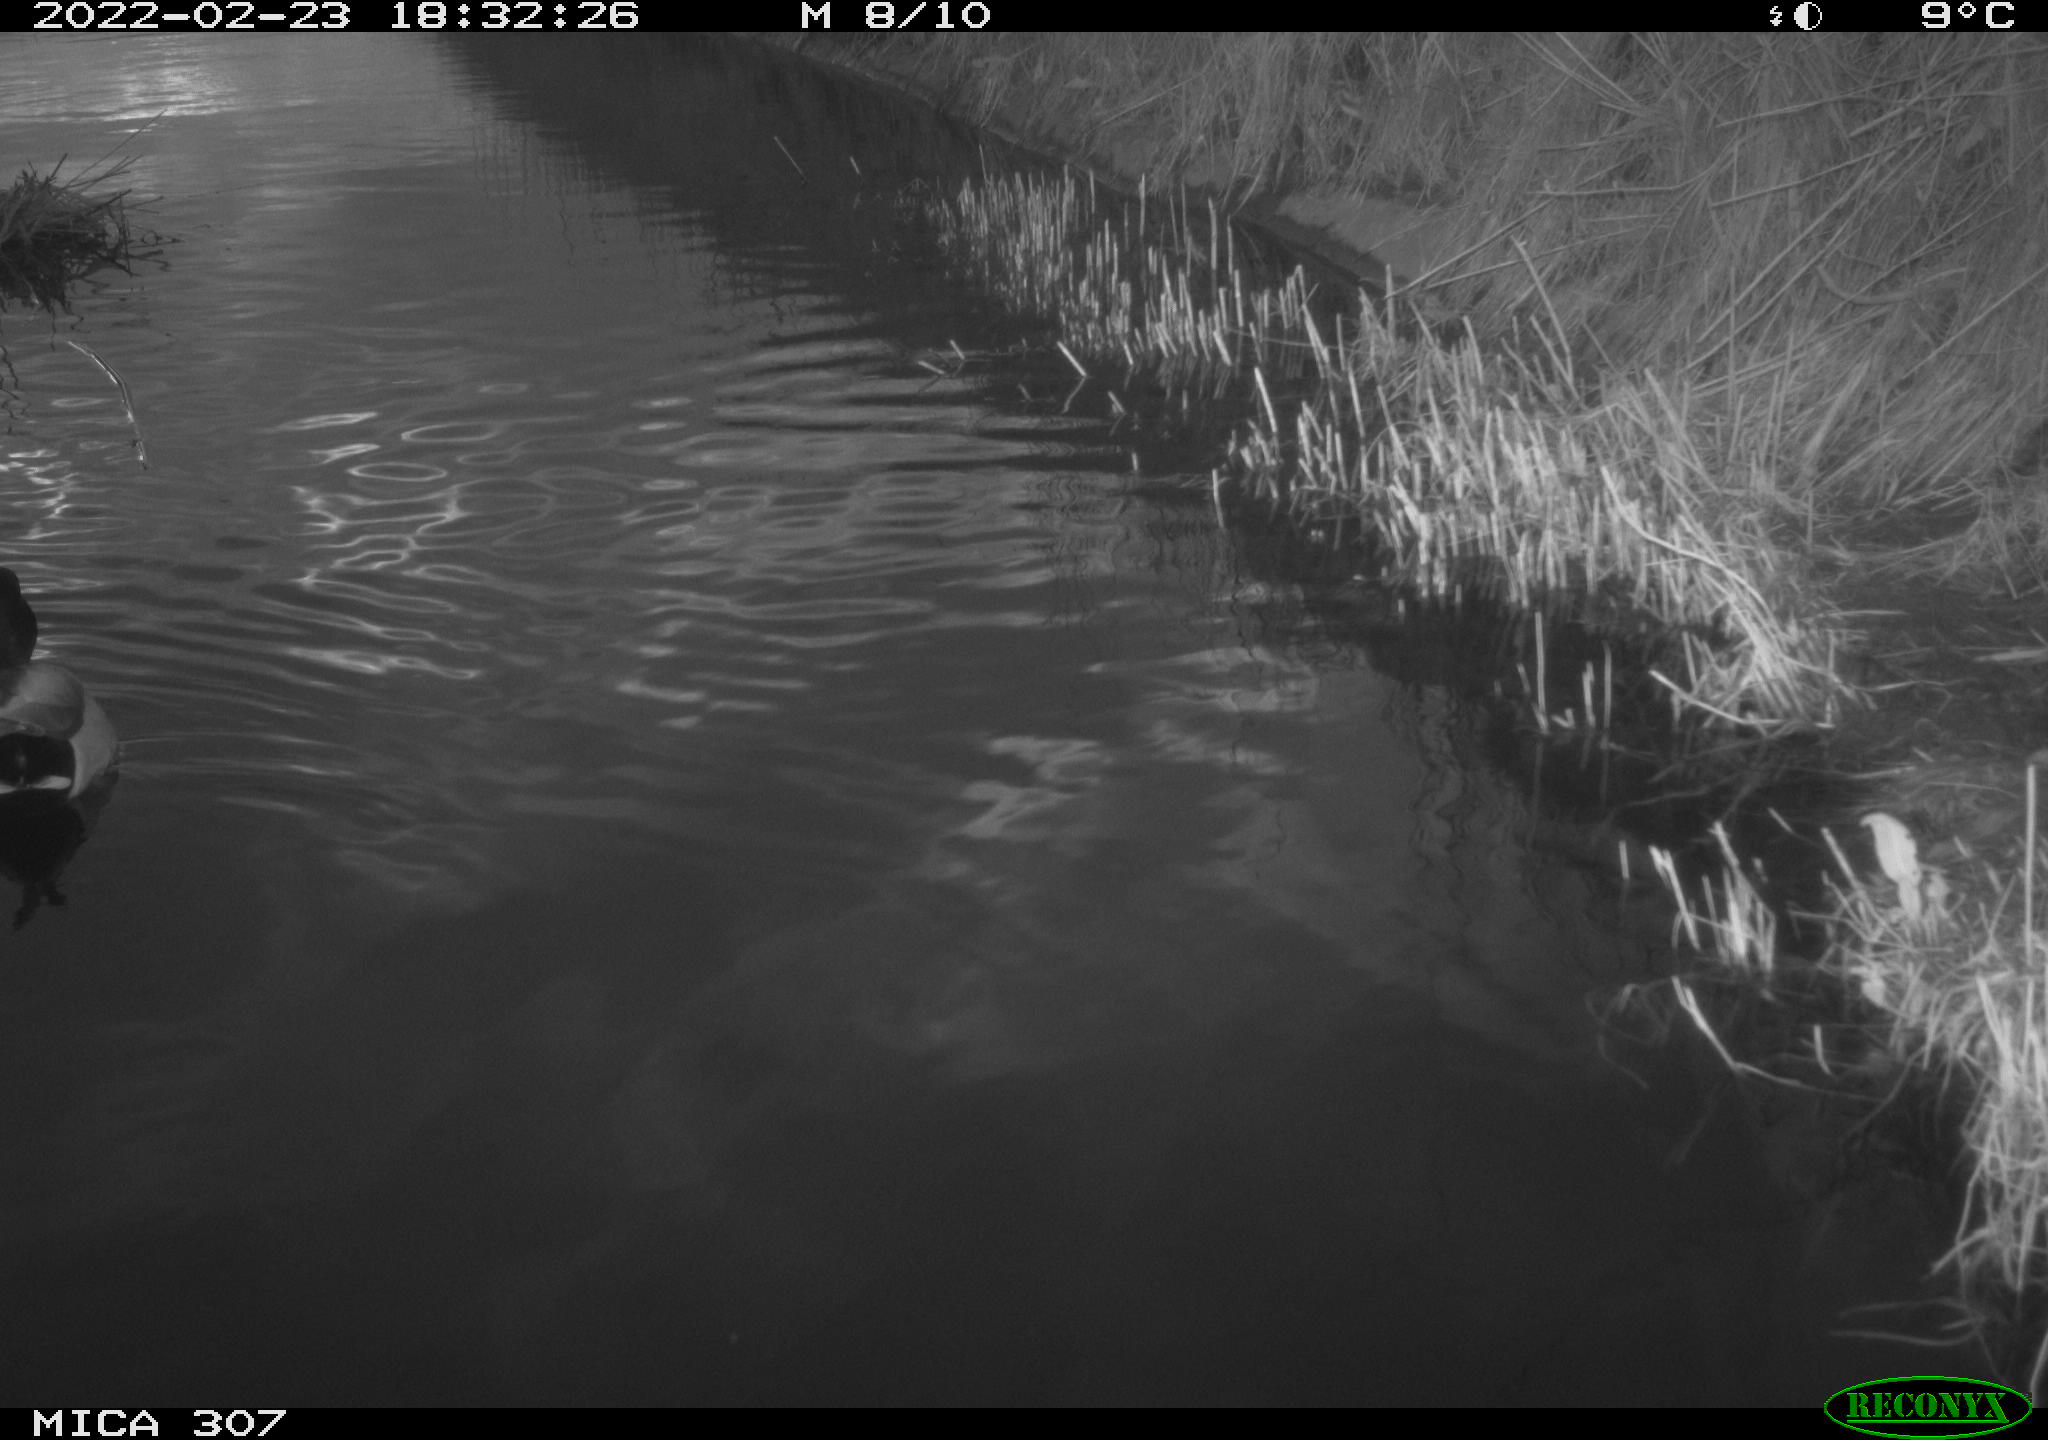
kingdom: Animalia
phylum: Chordata
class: Aves
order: Anseriformes
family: Anatidae
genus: Anas
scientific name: Anas platyrhynchos
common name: Mallard
